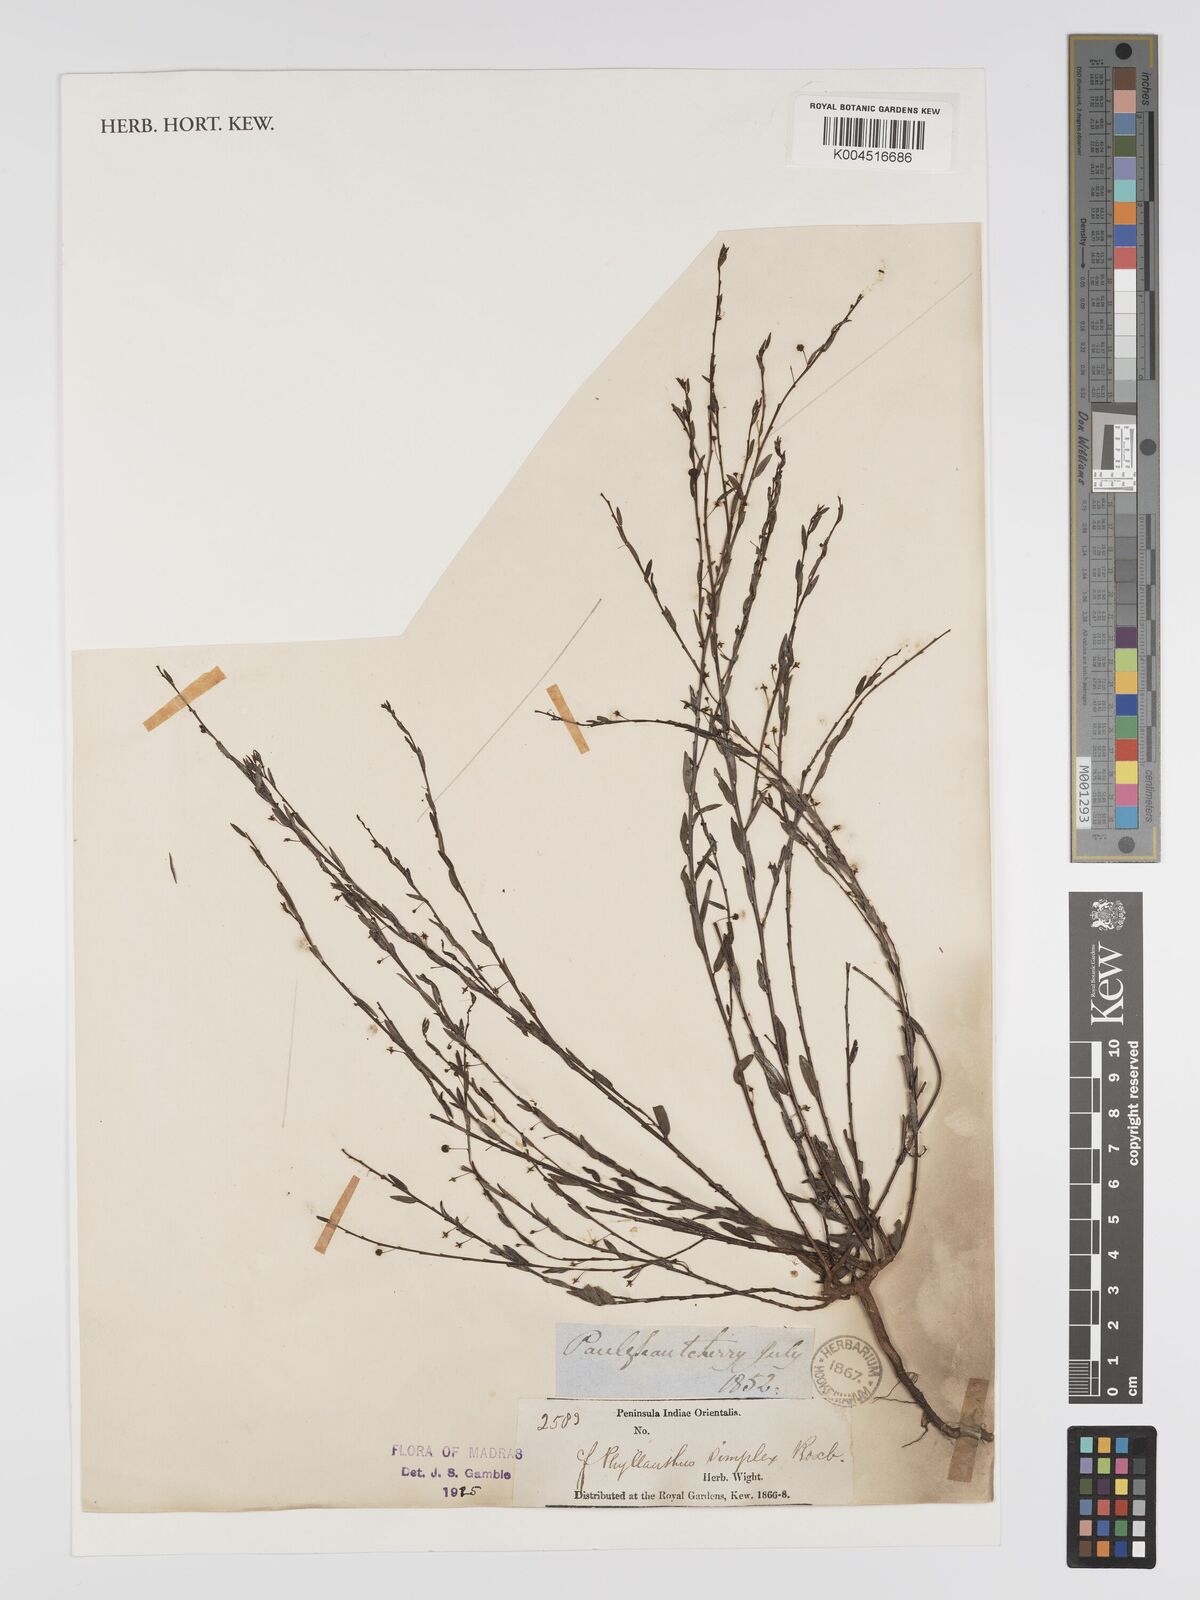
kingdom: Plantae
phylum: Tracheophyta
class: Magnoliopsida
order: Malpighiales
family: Phyllanthaceae
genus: Phyllanthus
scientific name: Phyllanthus virgatus
